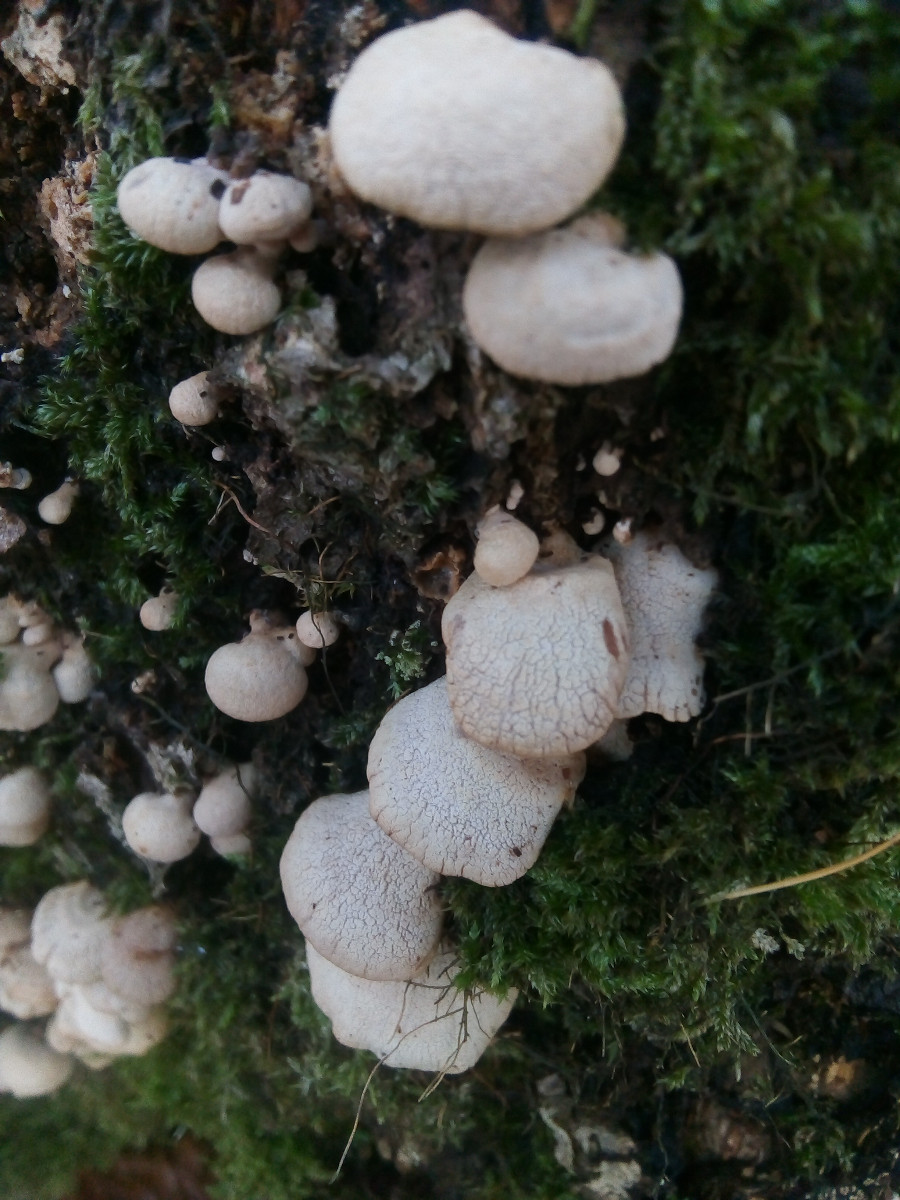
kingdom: Fungi
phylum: Basidiomycota
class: Agaricomycetes
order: Agaricales
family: Mycenaceae
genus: Panellus
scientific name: Panellus stipticus
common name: kliddet epaulethat
